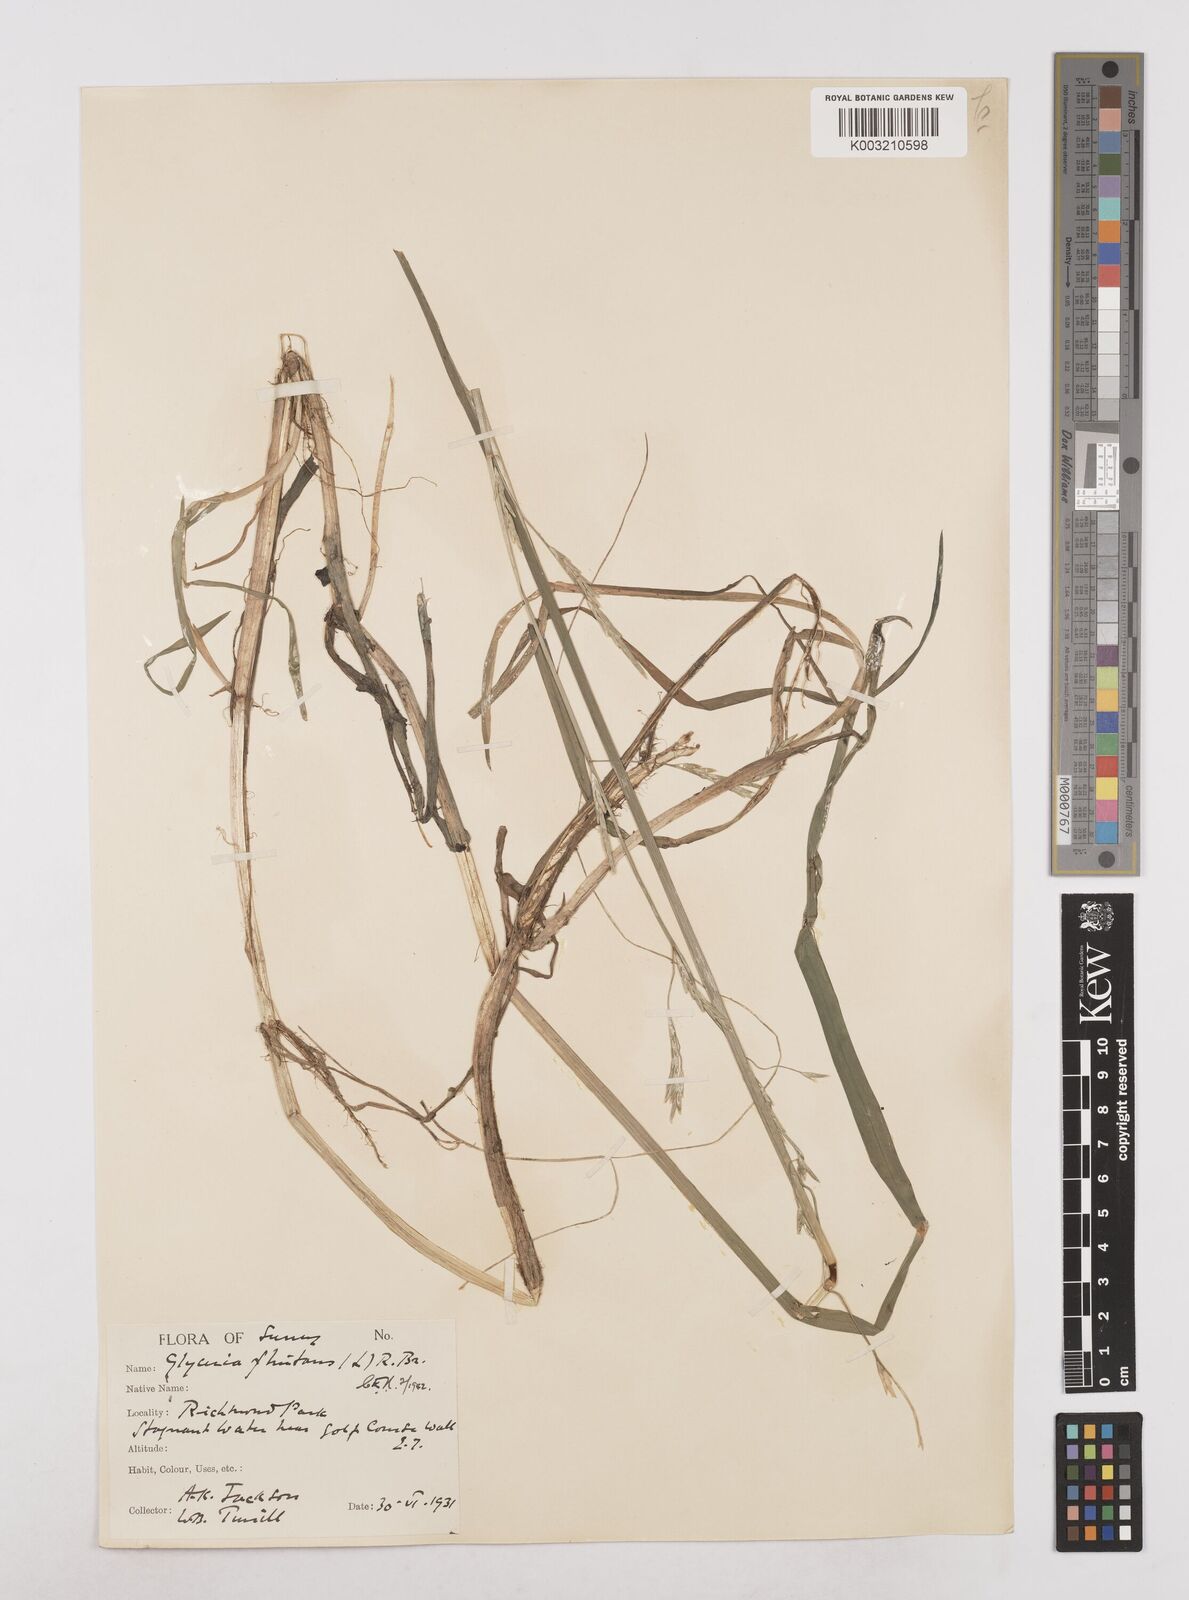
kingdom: Plantae
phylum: Tracheophyta
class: Liliopsida
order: Poales
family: Poaceae
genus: Glyceria
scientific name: Glyceria fluitans
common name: Floating sweet-grass
